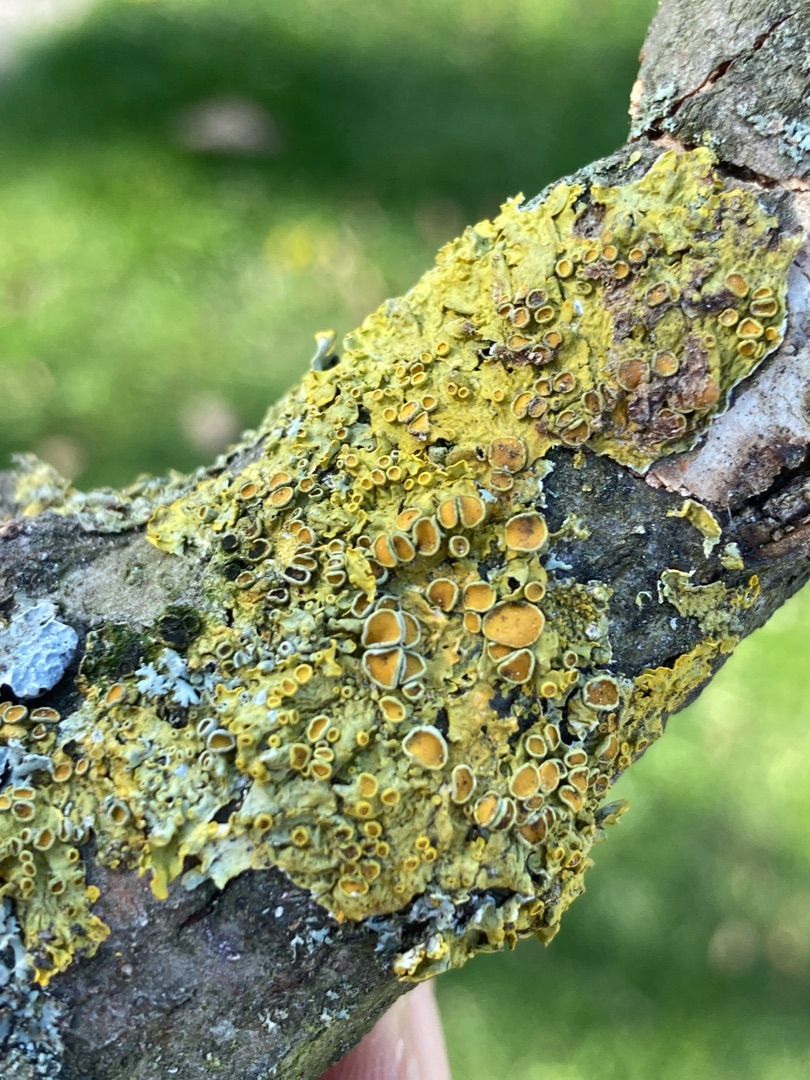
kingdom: Fungi
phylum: Ascomycota
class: Lecanoromycetes
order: Teloschistales
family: Teloschistaceae
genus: Xanthoria
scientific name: Xanthoria parietina
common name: Almindelig væggelav
